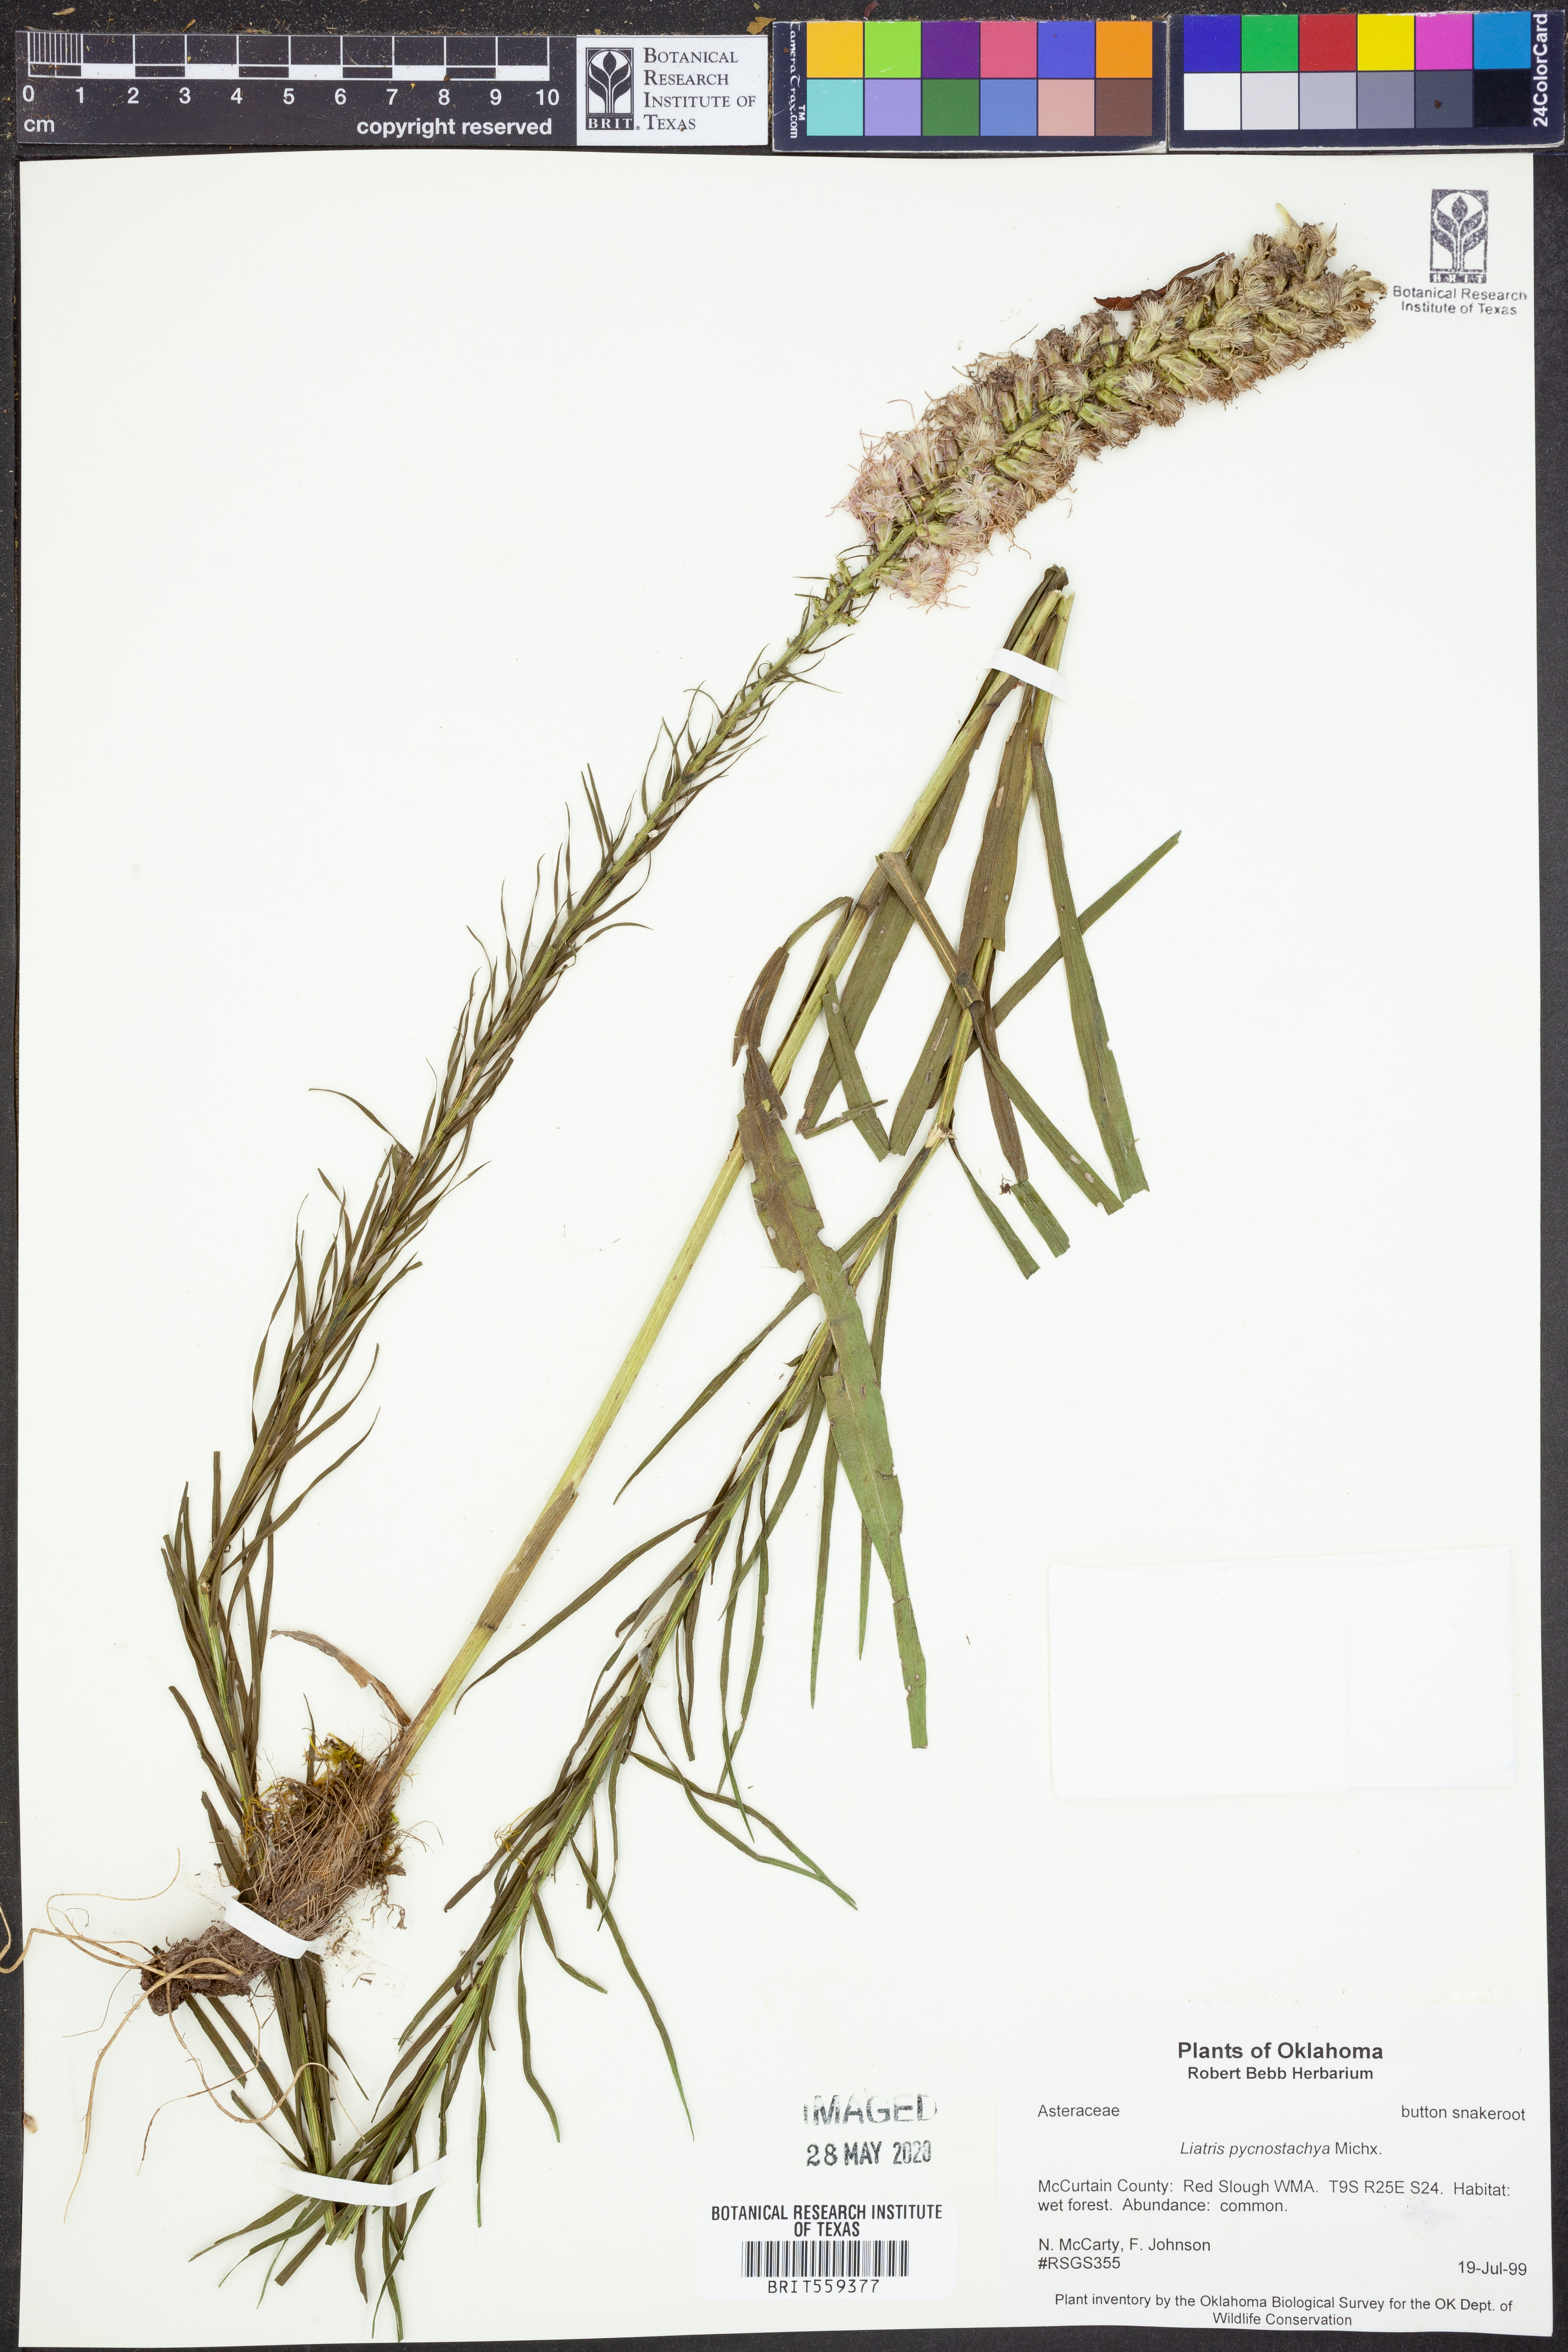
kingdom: Plantae
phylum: Tracheophyta
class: Magnoliopsida
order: Asterales
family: Asteraceae
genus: Liatris
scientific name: Liatris pycnostachya
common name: Cattail gayfeather
